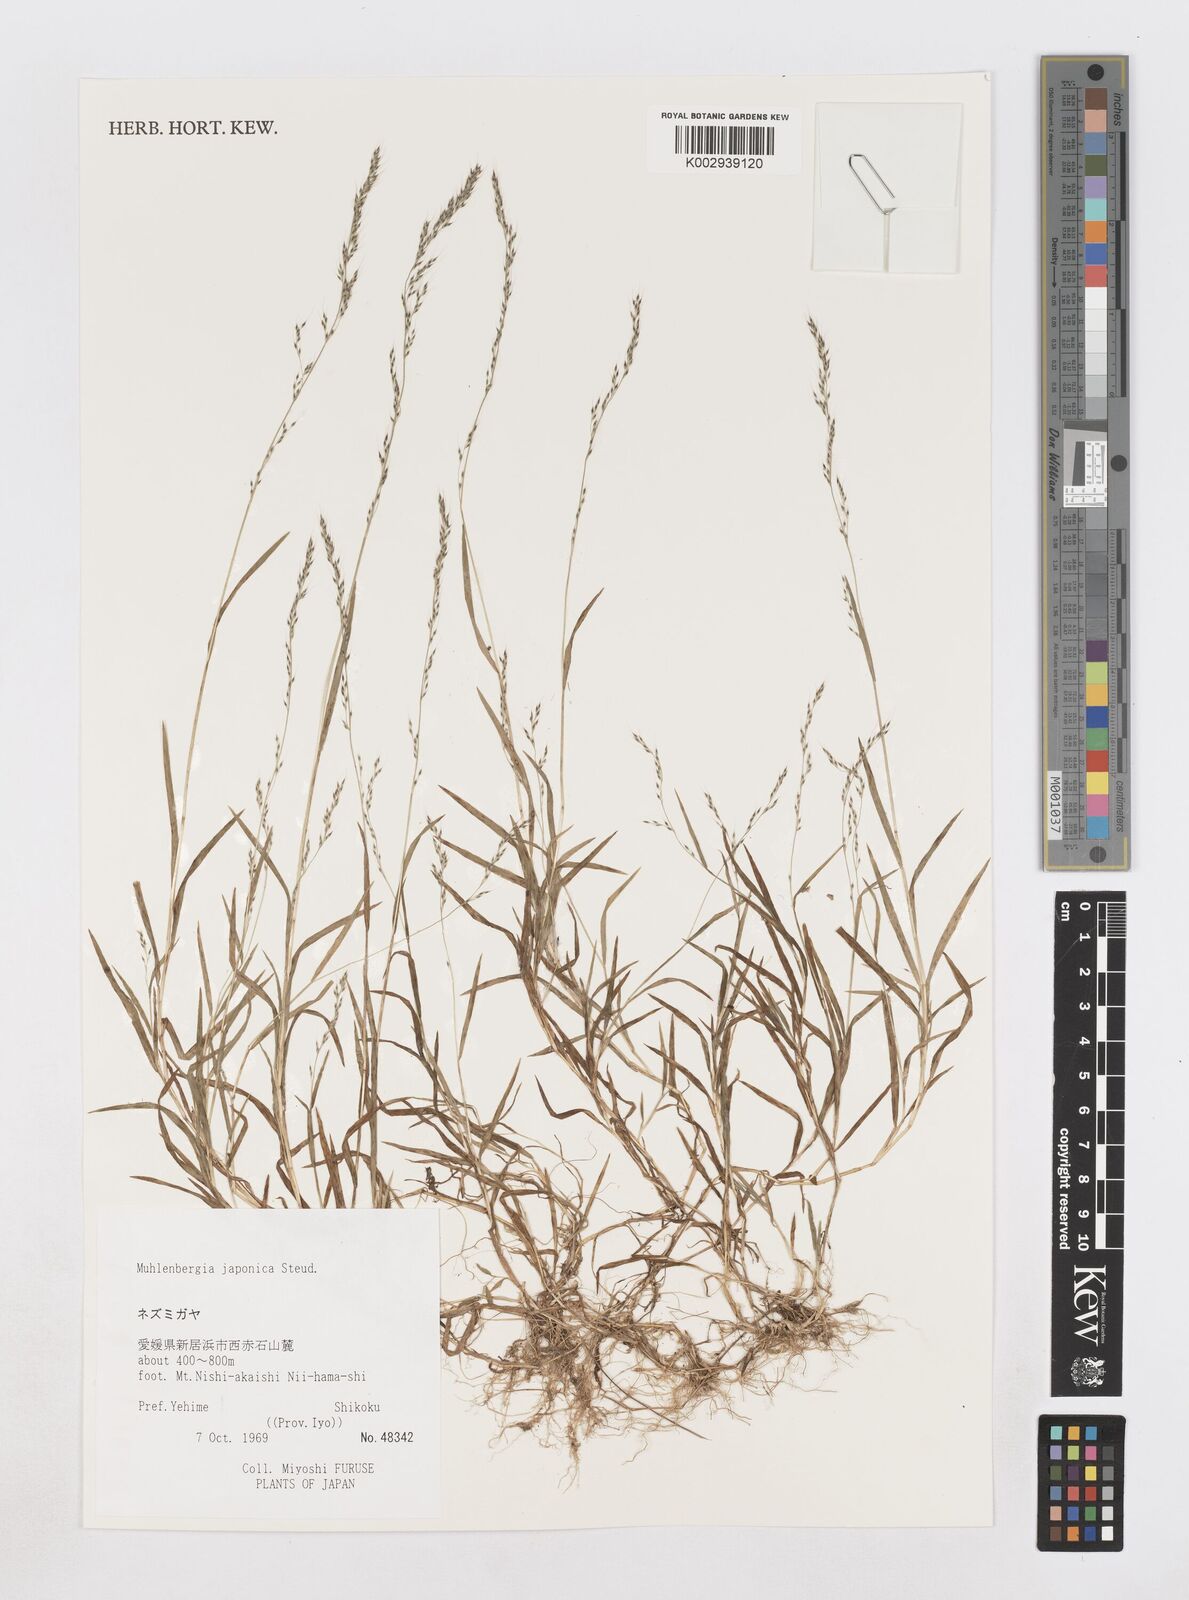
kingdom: Plantae
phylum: Tracheophyta
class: Liliopsida
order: Poales
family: Poaceae
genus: Muhlenbergia
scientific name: Muhlenbergia japonica
